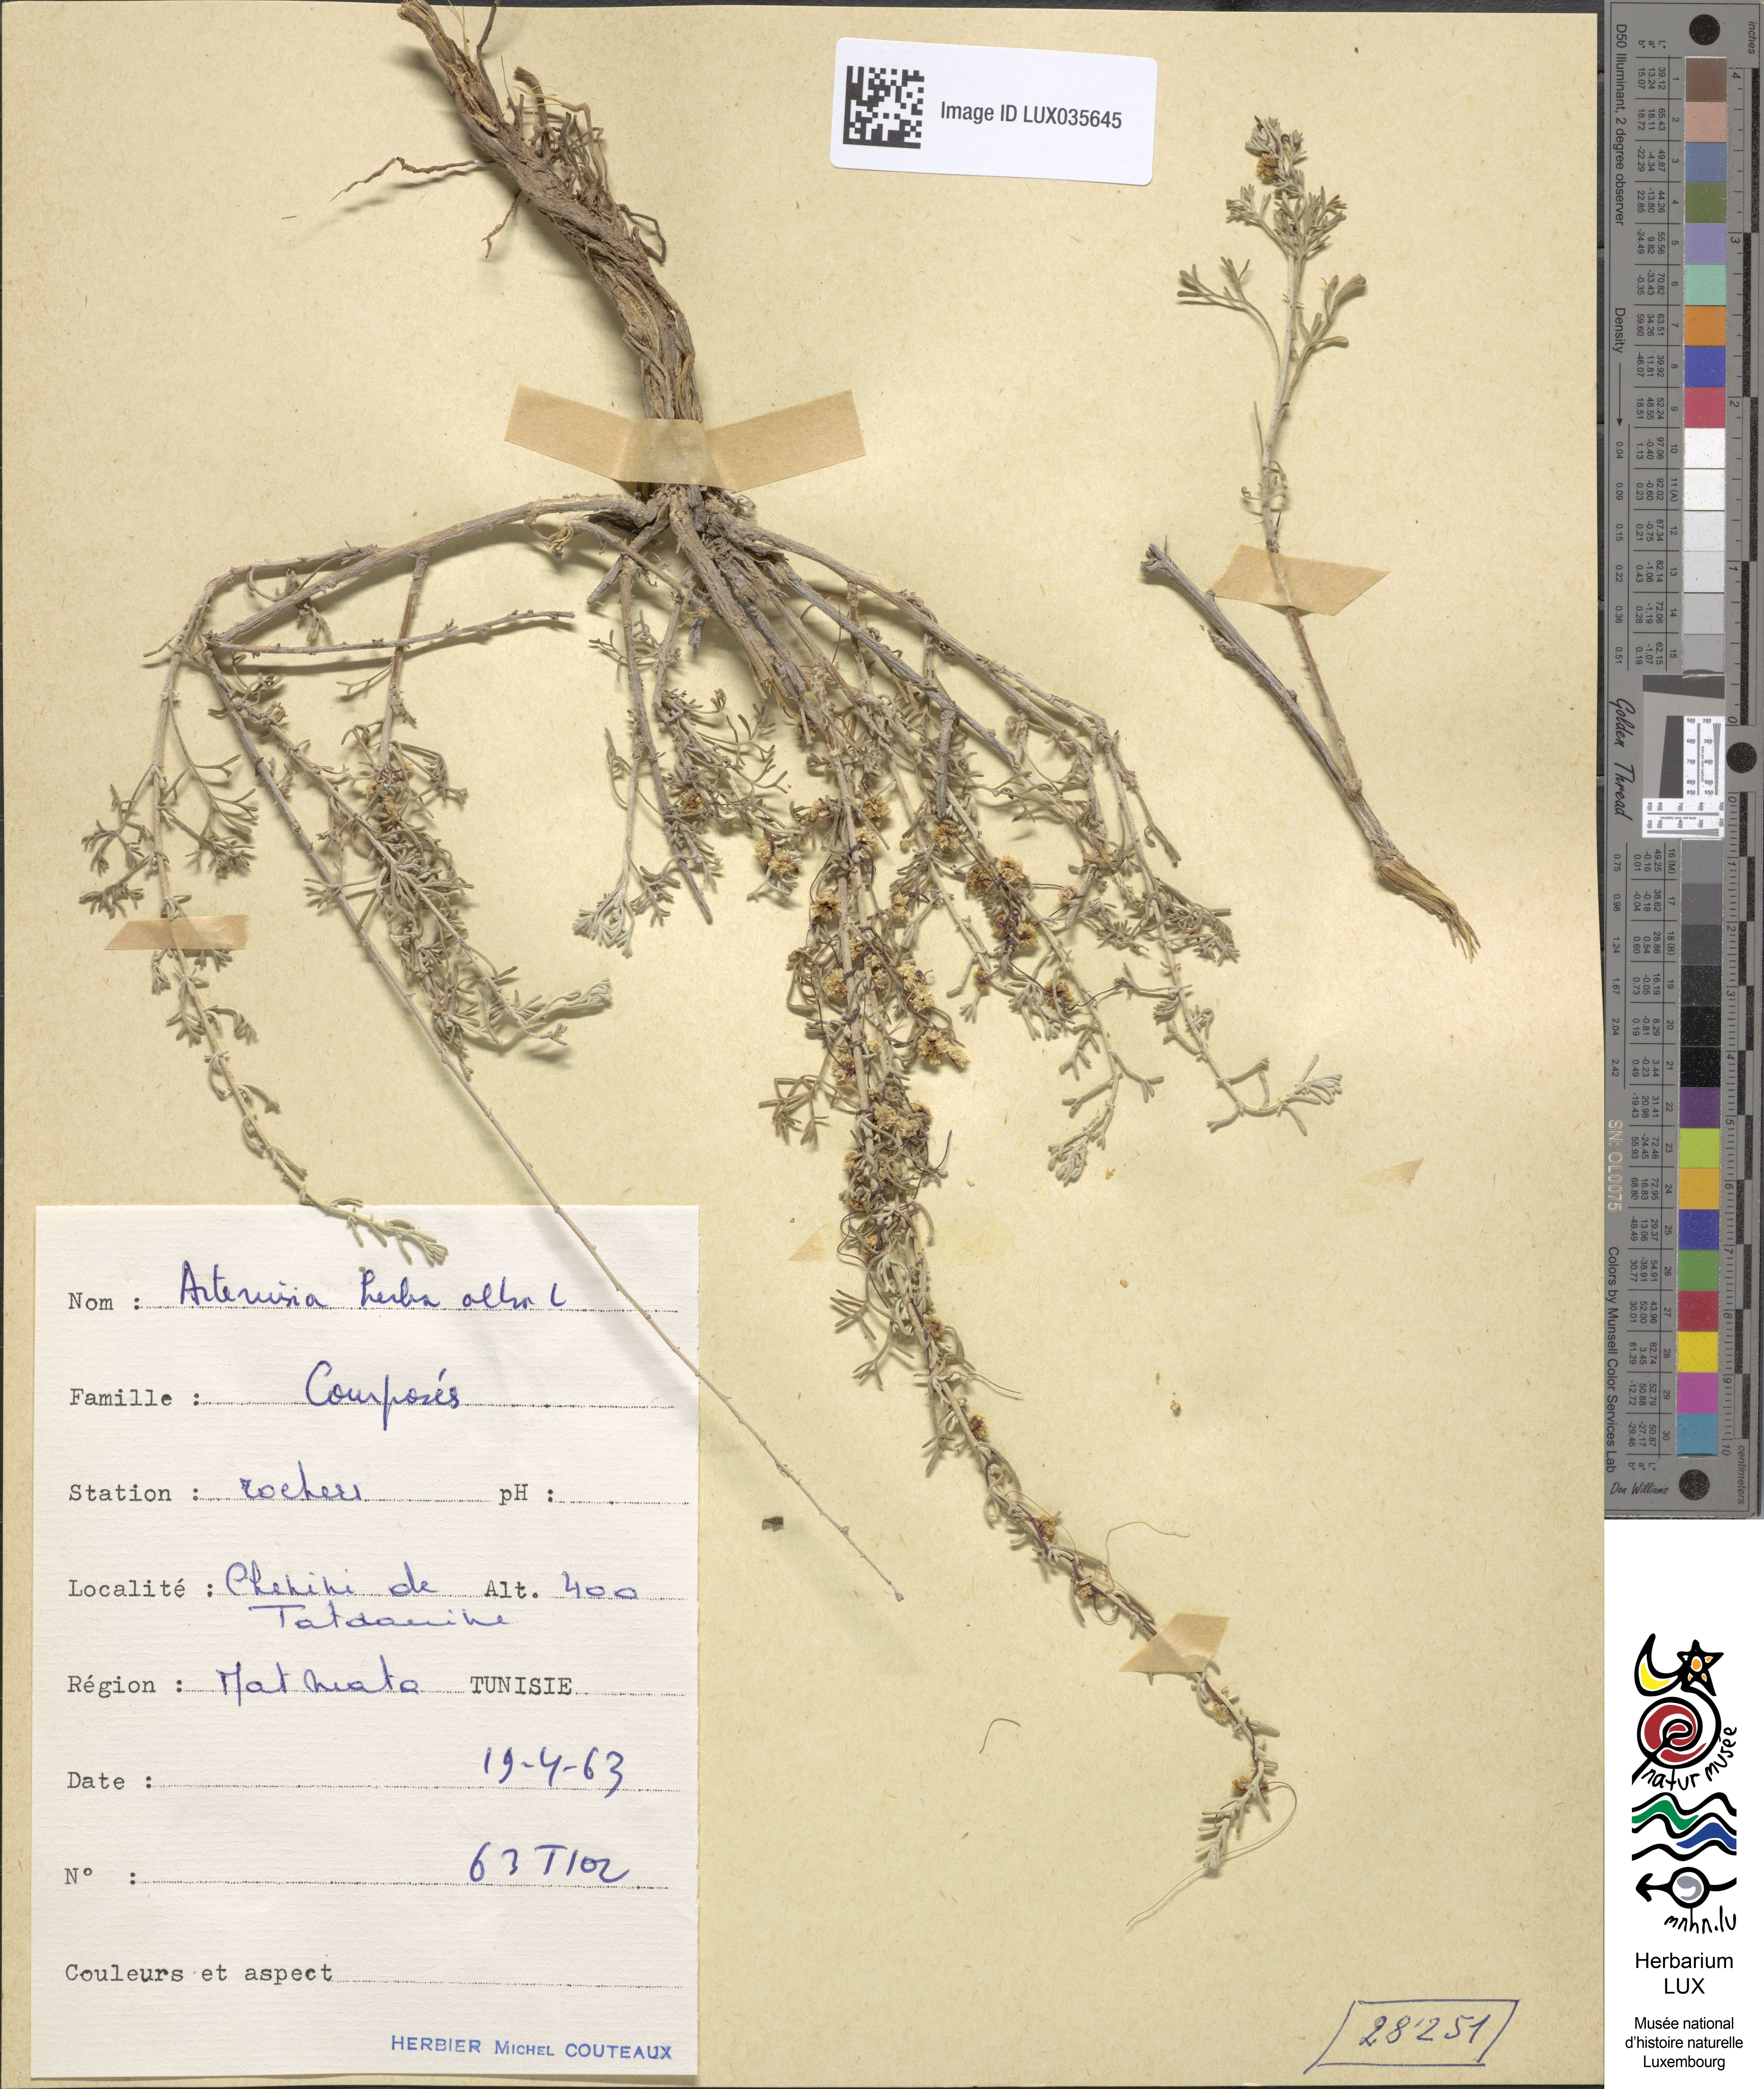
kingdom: Plantae
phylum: Tracheophyta
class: Magnoliopsida
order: Asterales
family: Asteraceae
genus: Artemisia
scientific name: Artemisia herba-alba
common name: White wormwood
